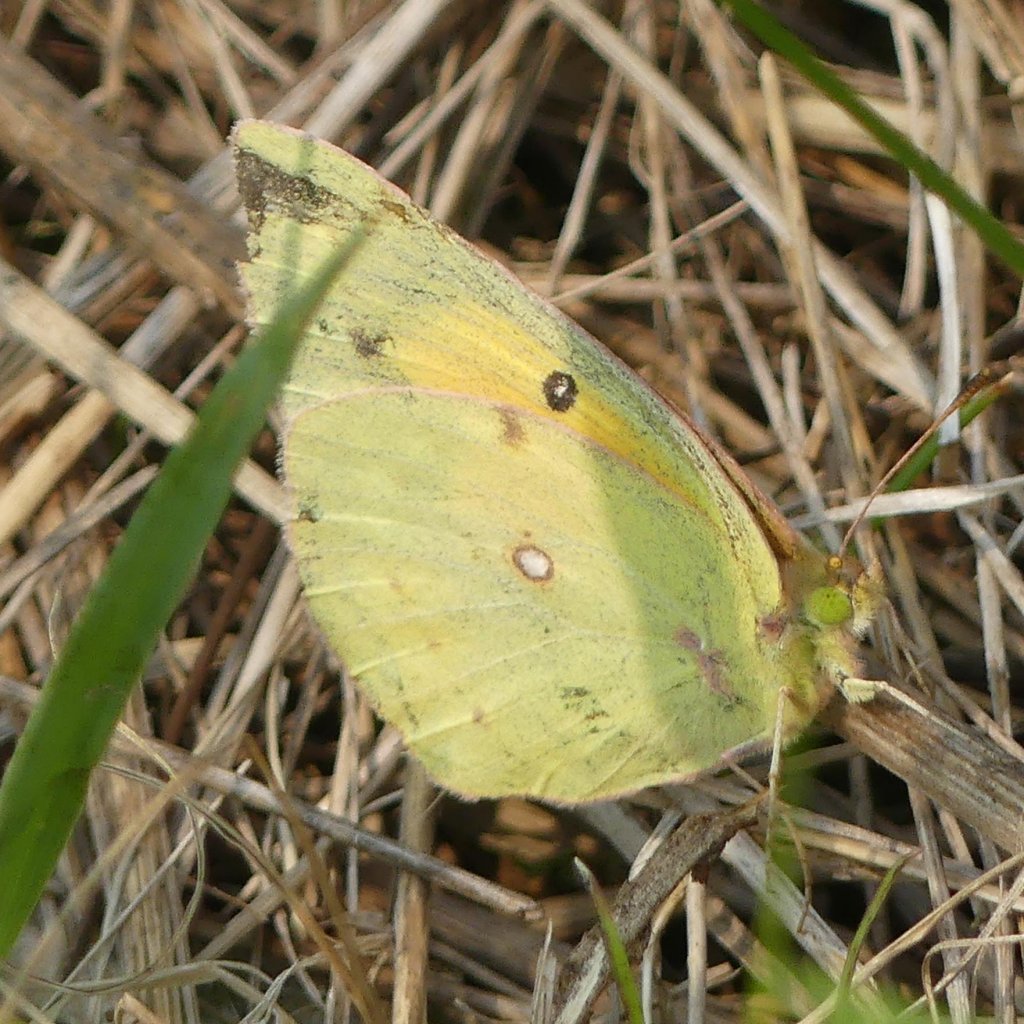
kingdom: Animalia
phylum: Arthropoda
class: Insecta
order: Lepidoptera
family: Pieridae
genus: Colias
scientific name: Colias
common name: Clouded Yellows
